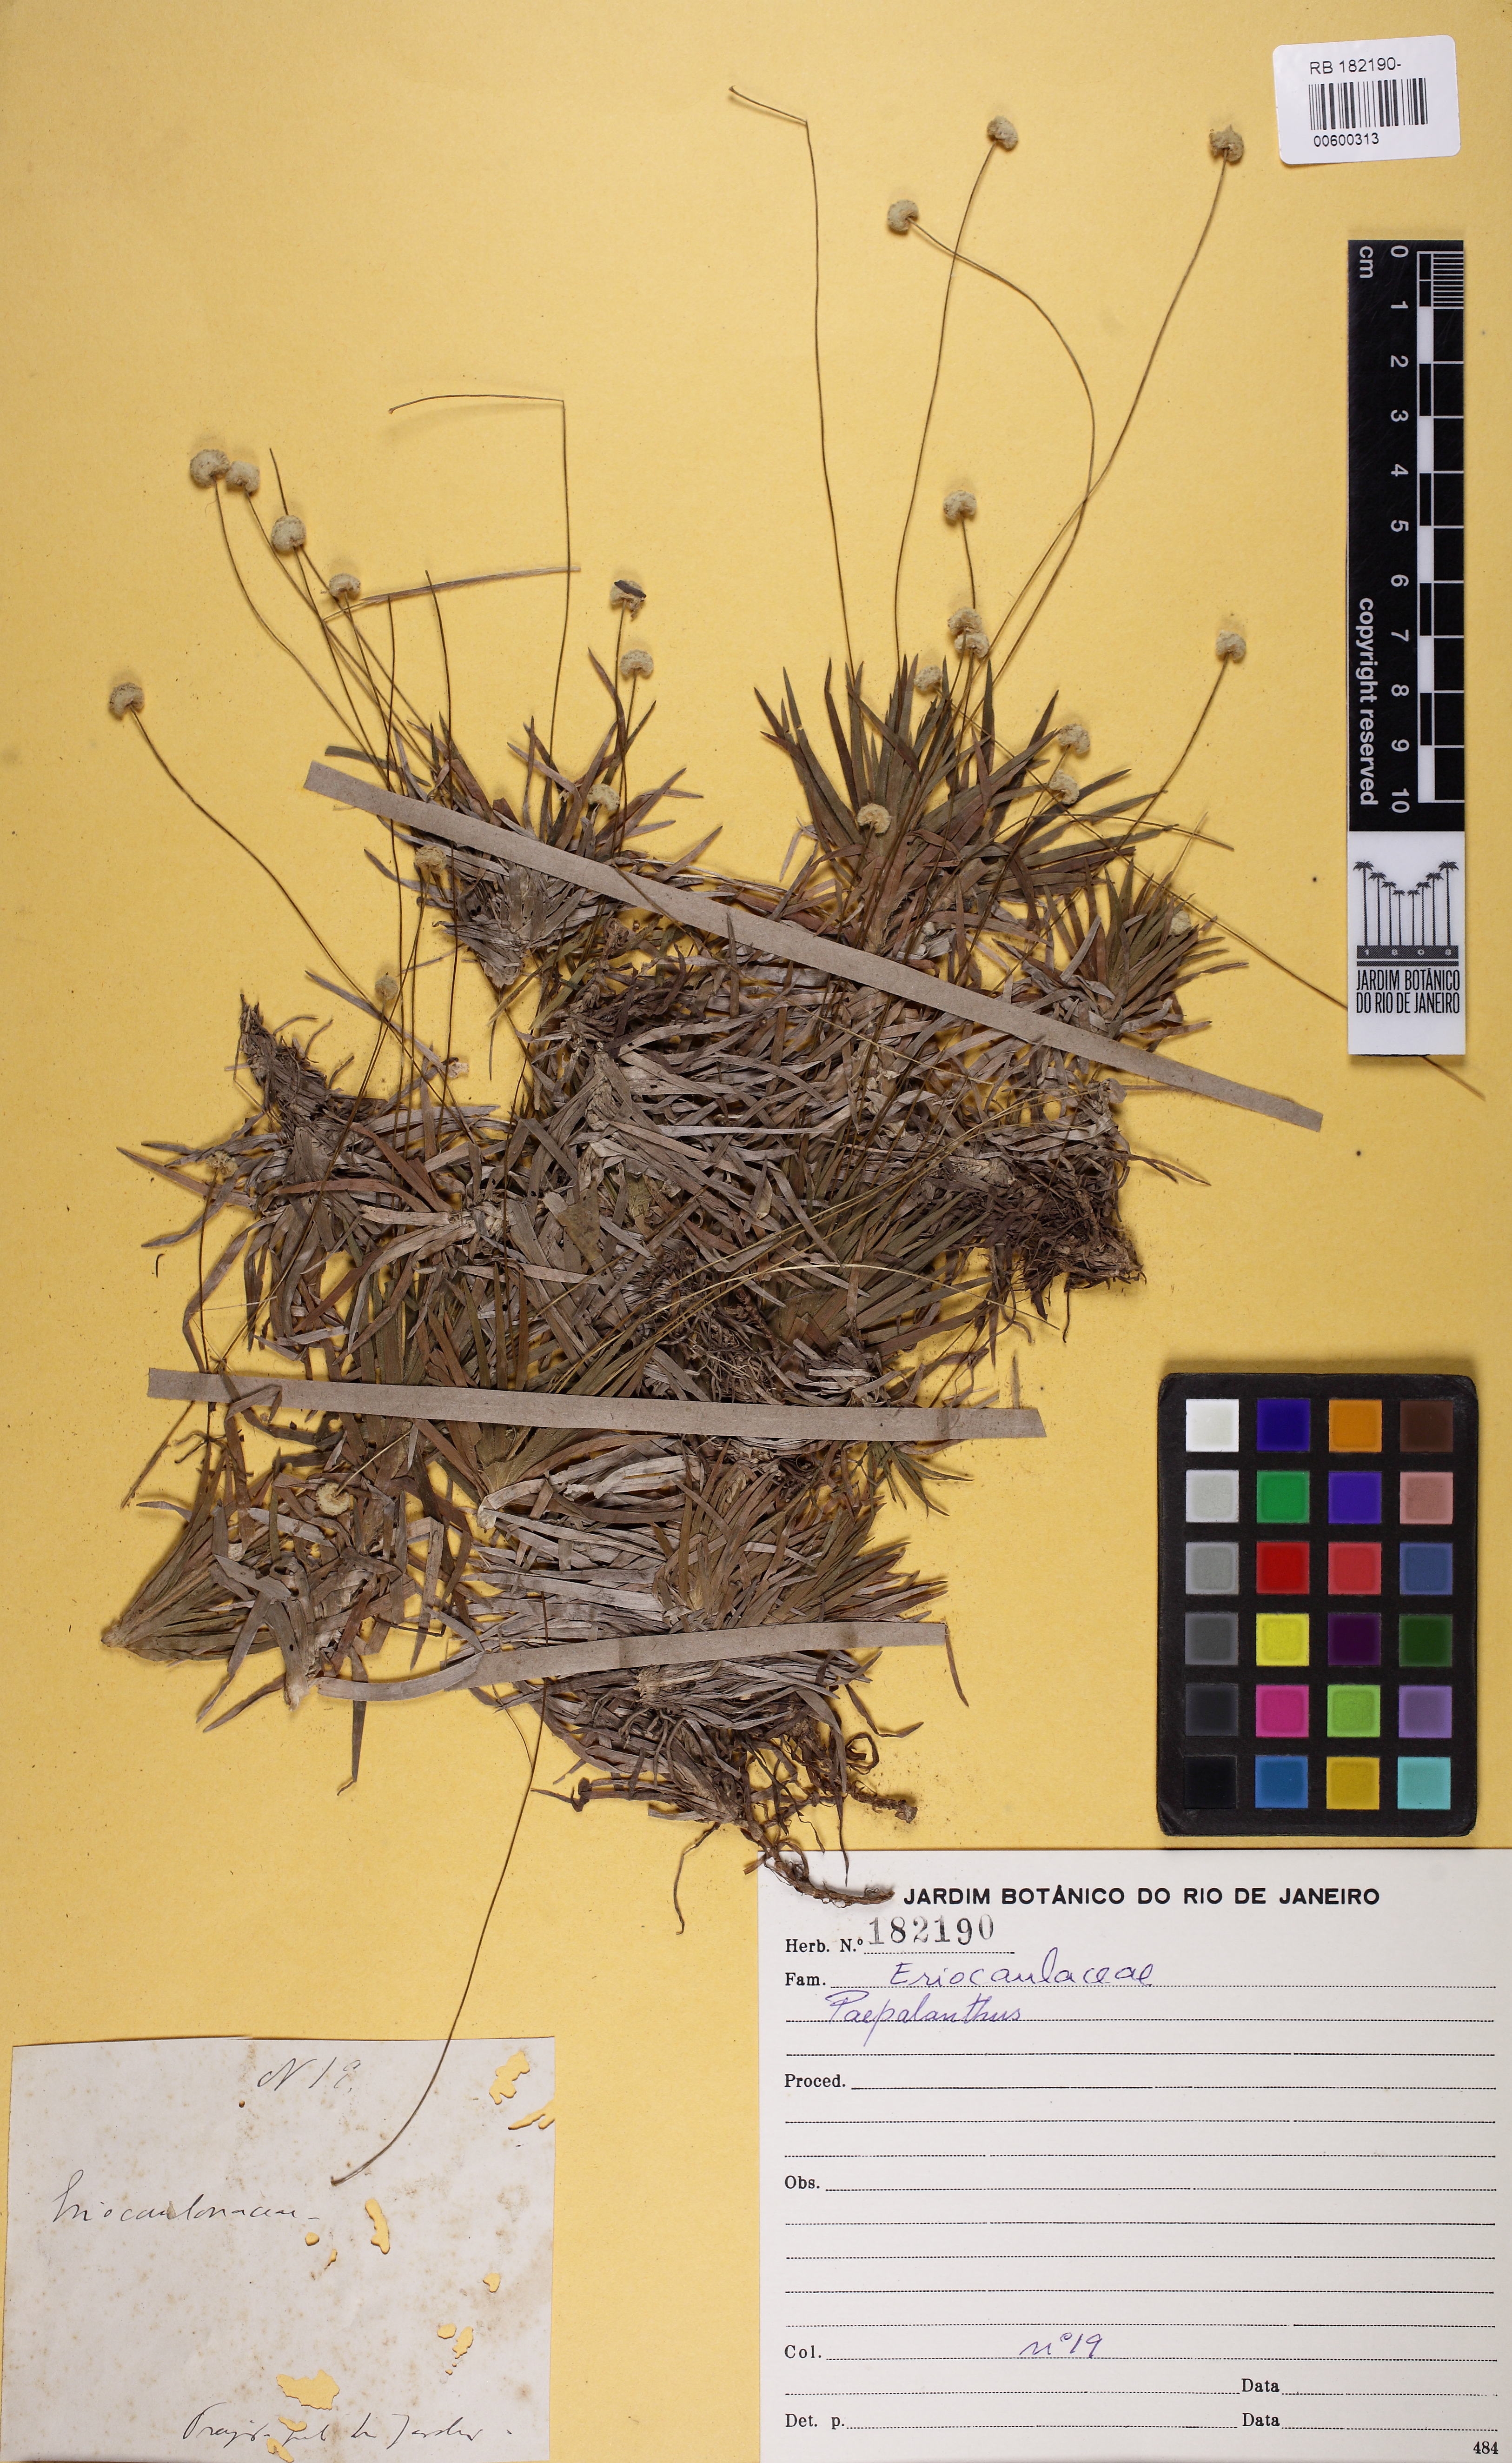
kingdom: Plantae
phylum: Tracheophyta
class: Liliopsida
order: Poales
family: Eriocaulaceae
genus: Paepalanthus
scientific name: Paepalanthus
